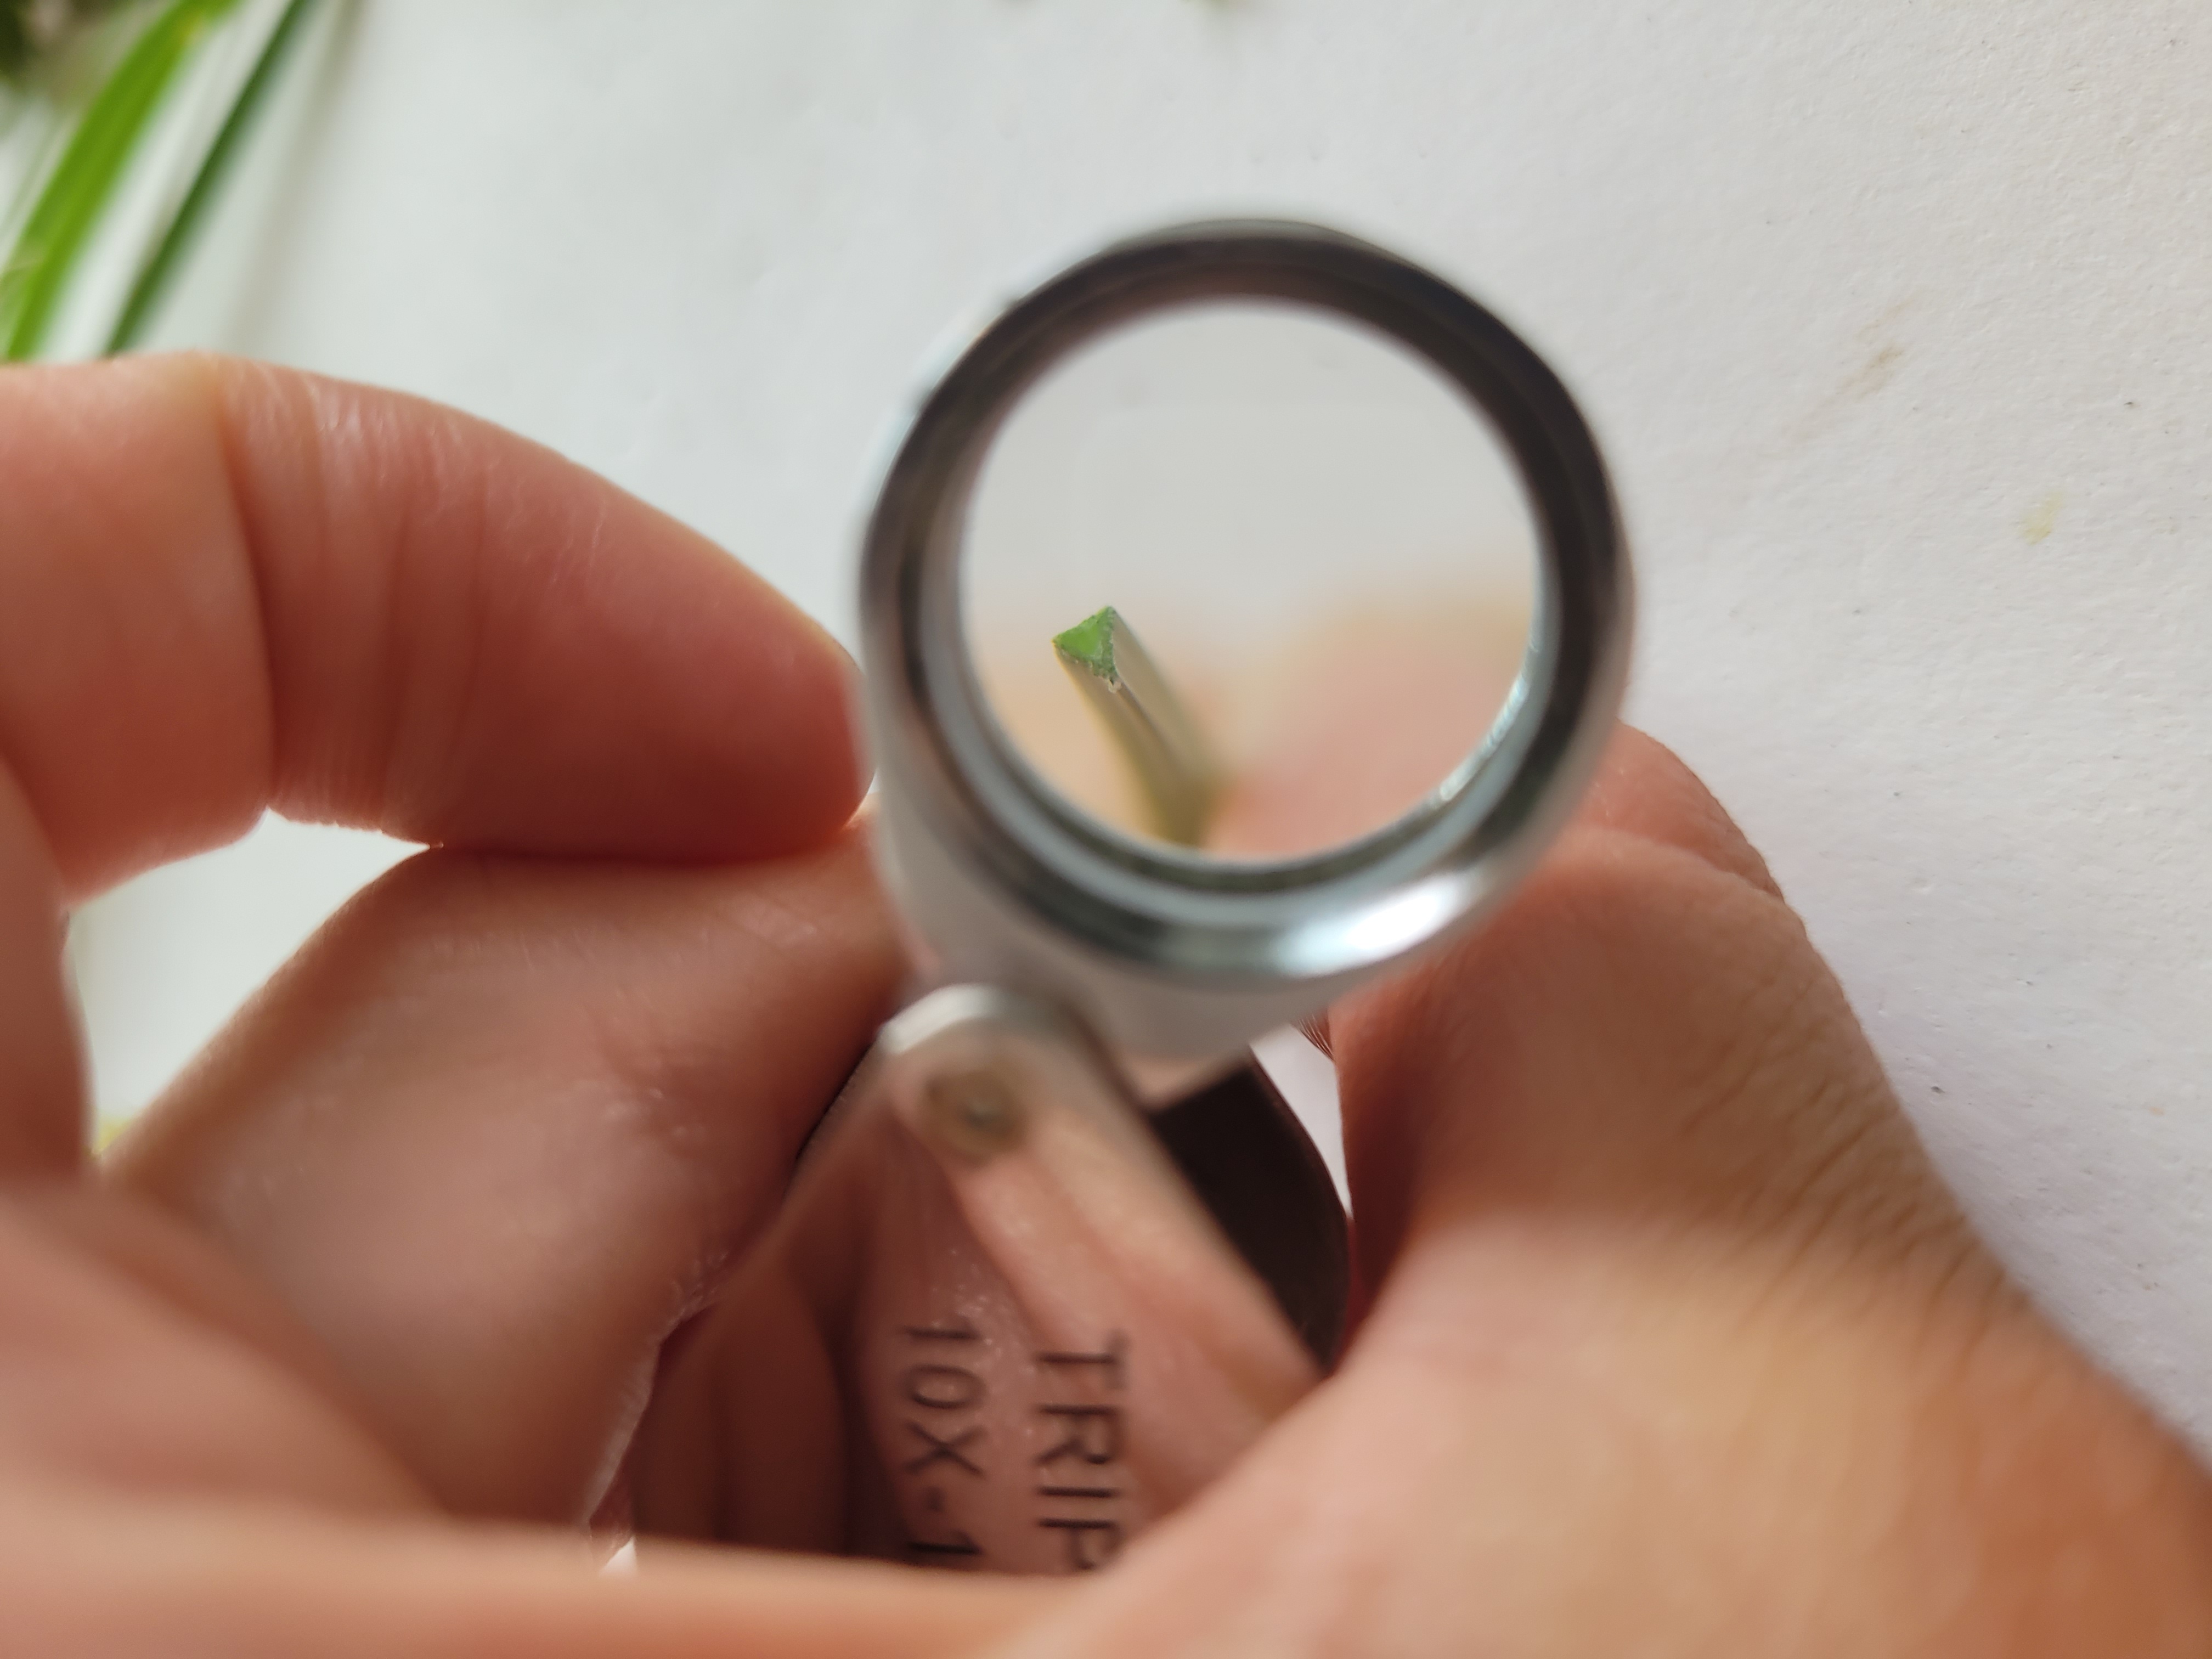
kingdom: Plantae
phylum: Tracheophyta
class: Liliopsida
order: Poales
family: Cyperaceae
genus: Carex
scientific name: Carex otrubae
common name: Sylt-star
